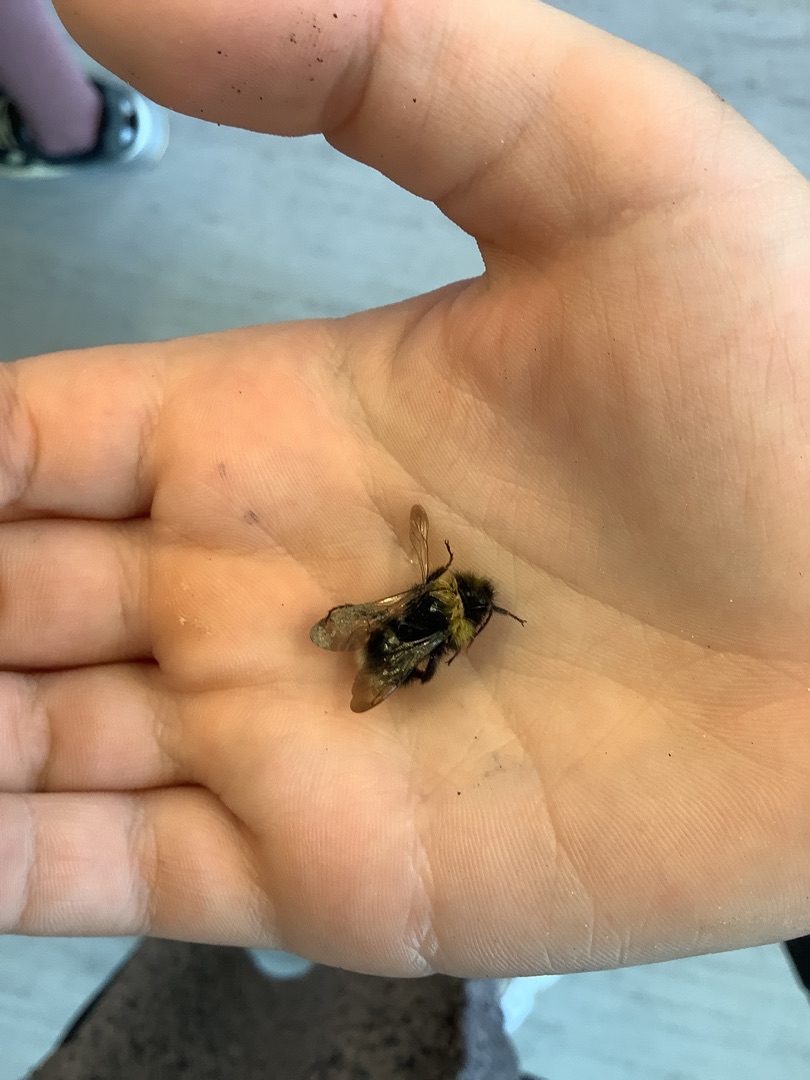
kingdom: Animalia
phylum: Arthropoda
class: Insecta
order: Hymenoptera
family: Apidae
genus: Bombus
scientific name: Bombus
